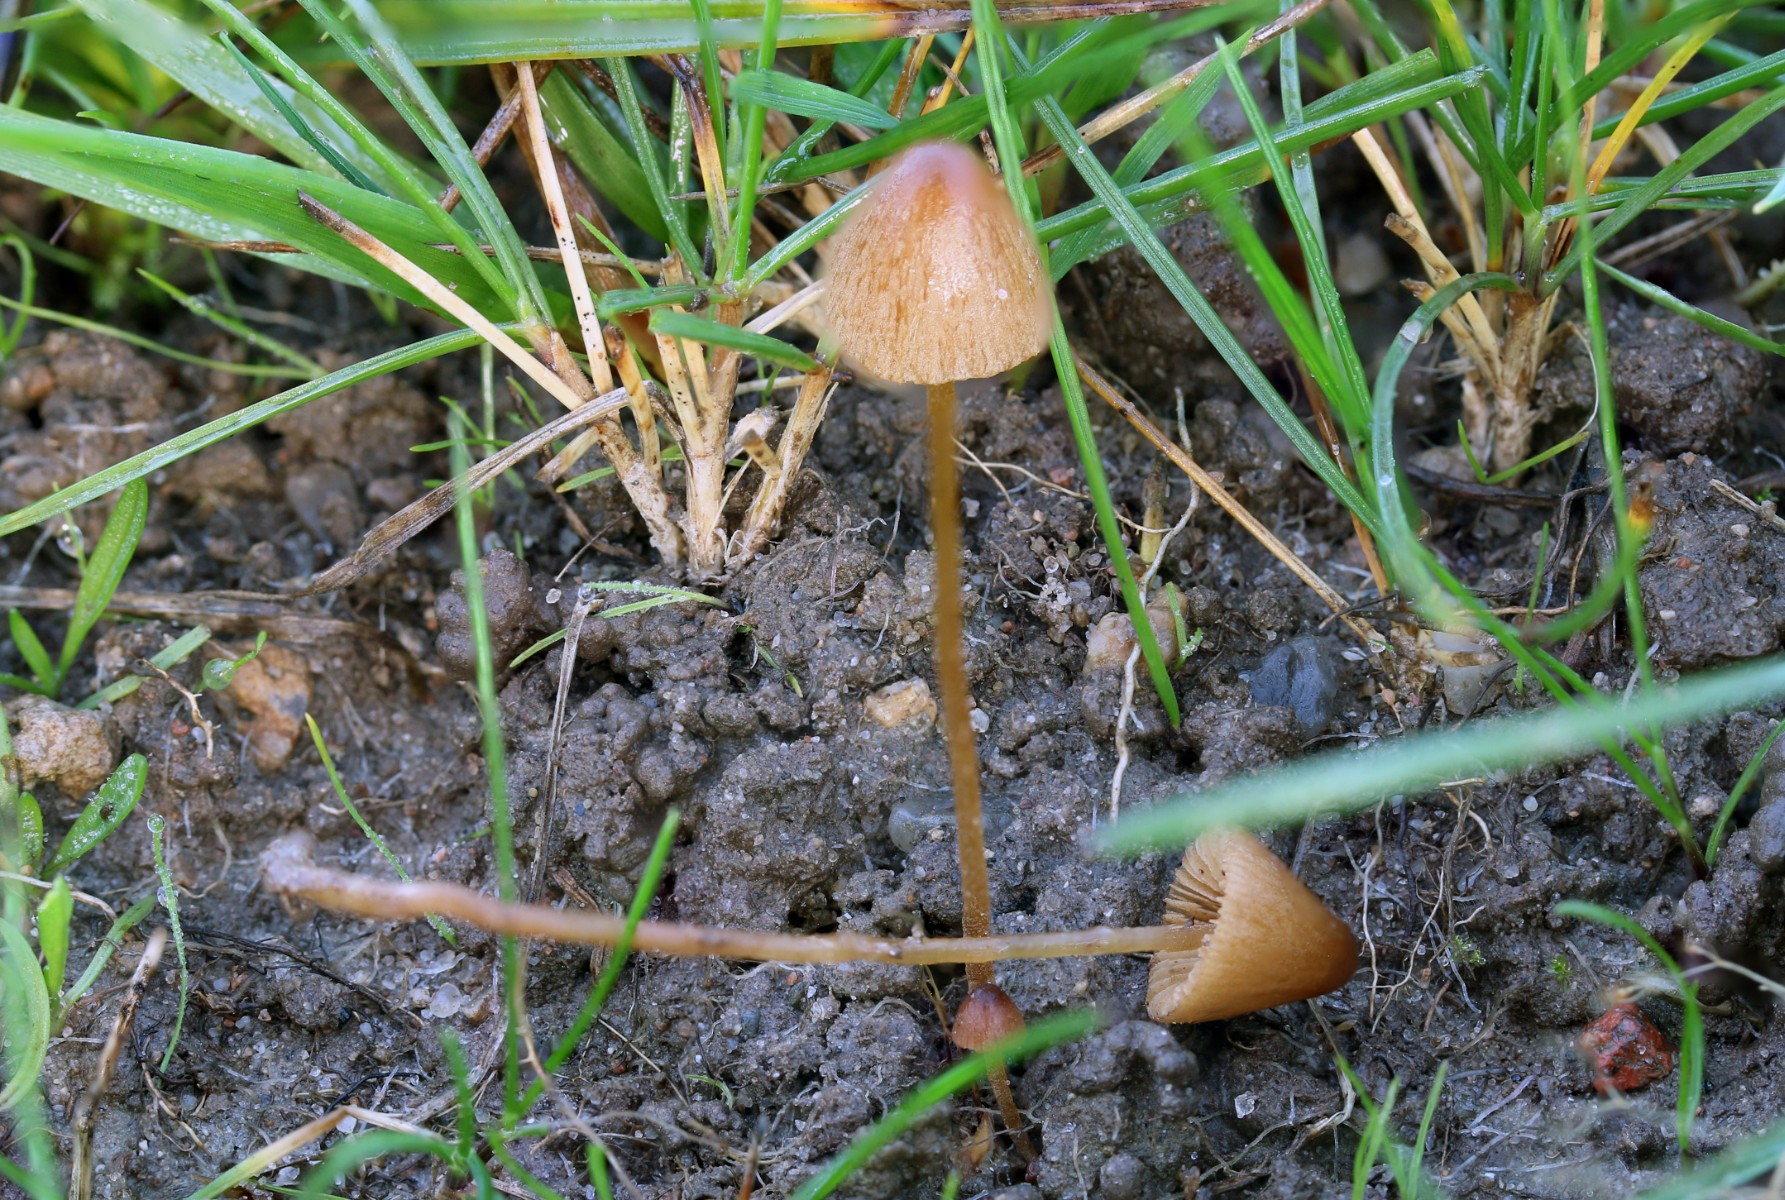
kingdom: Fungi
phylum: Basidiomycota
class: Agaricomycetes
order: Agaricales
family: Bolbitiaceae
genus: Conocybe
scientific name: Conocybe juniana
